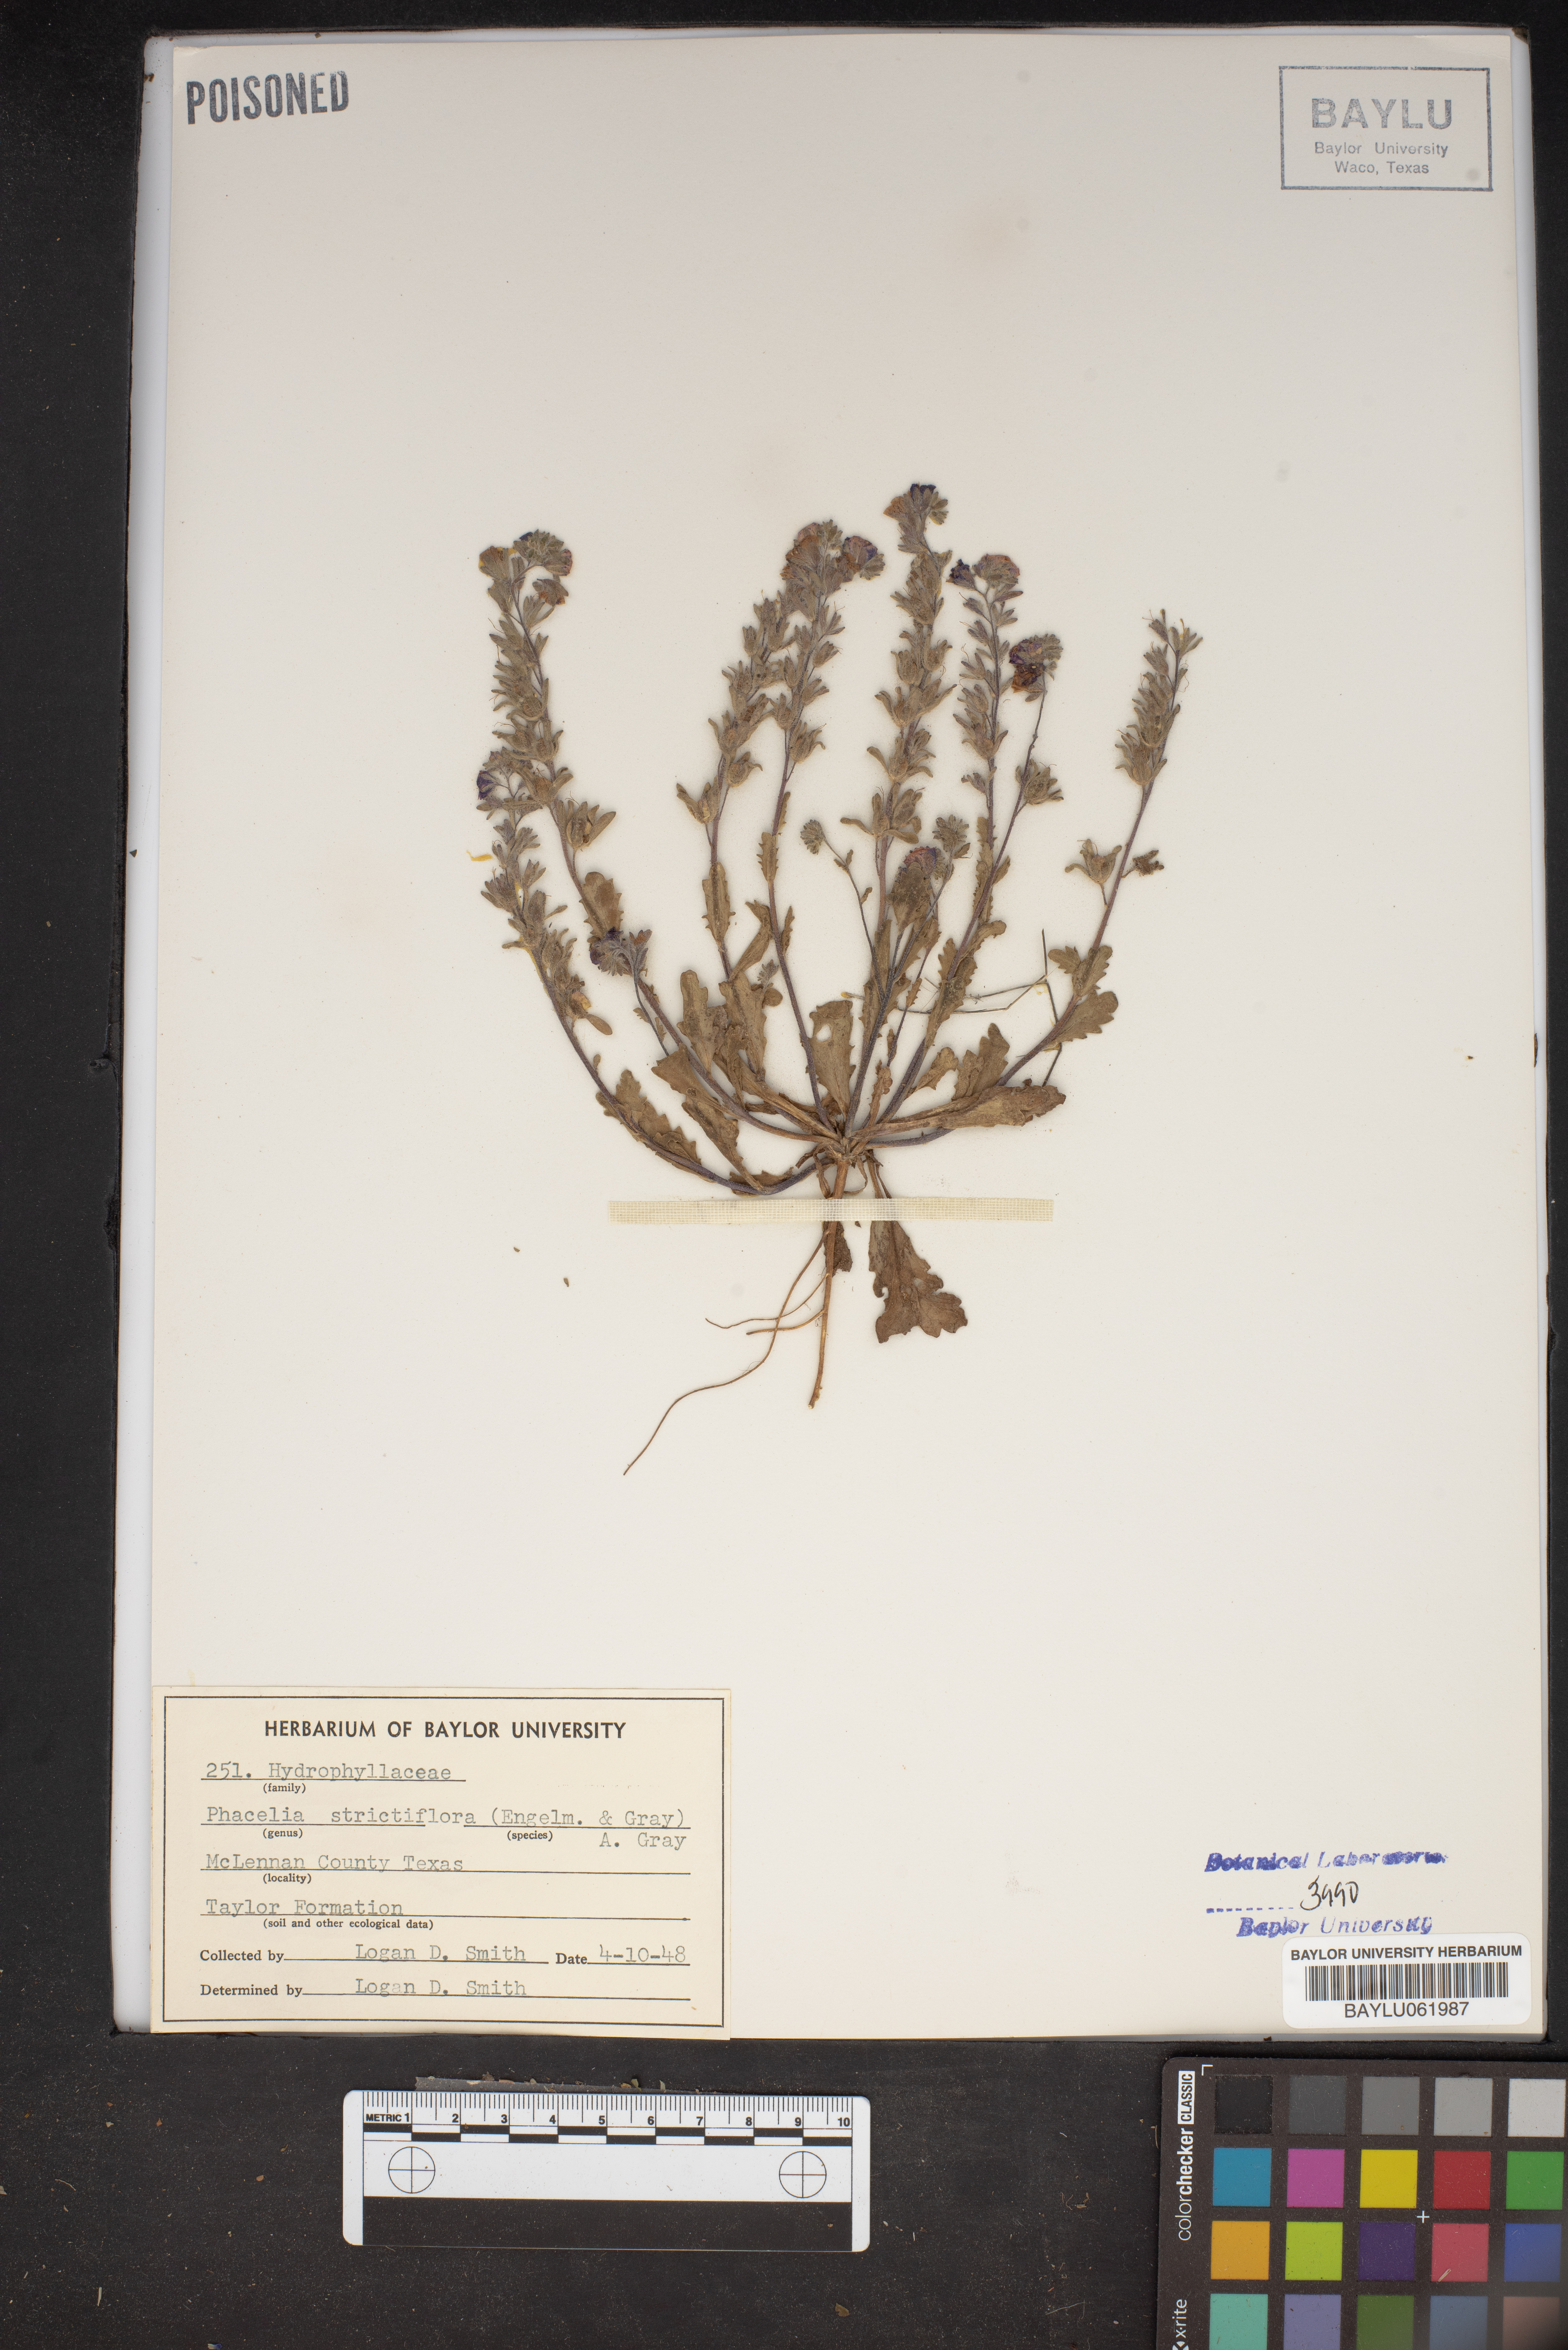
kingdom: Plantae
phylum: Tracheophyta
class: Magnoliopsida
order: Boraginales
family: Hydrophyllaceae
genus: Phacelia
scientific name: Phacelia strictiflora
